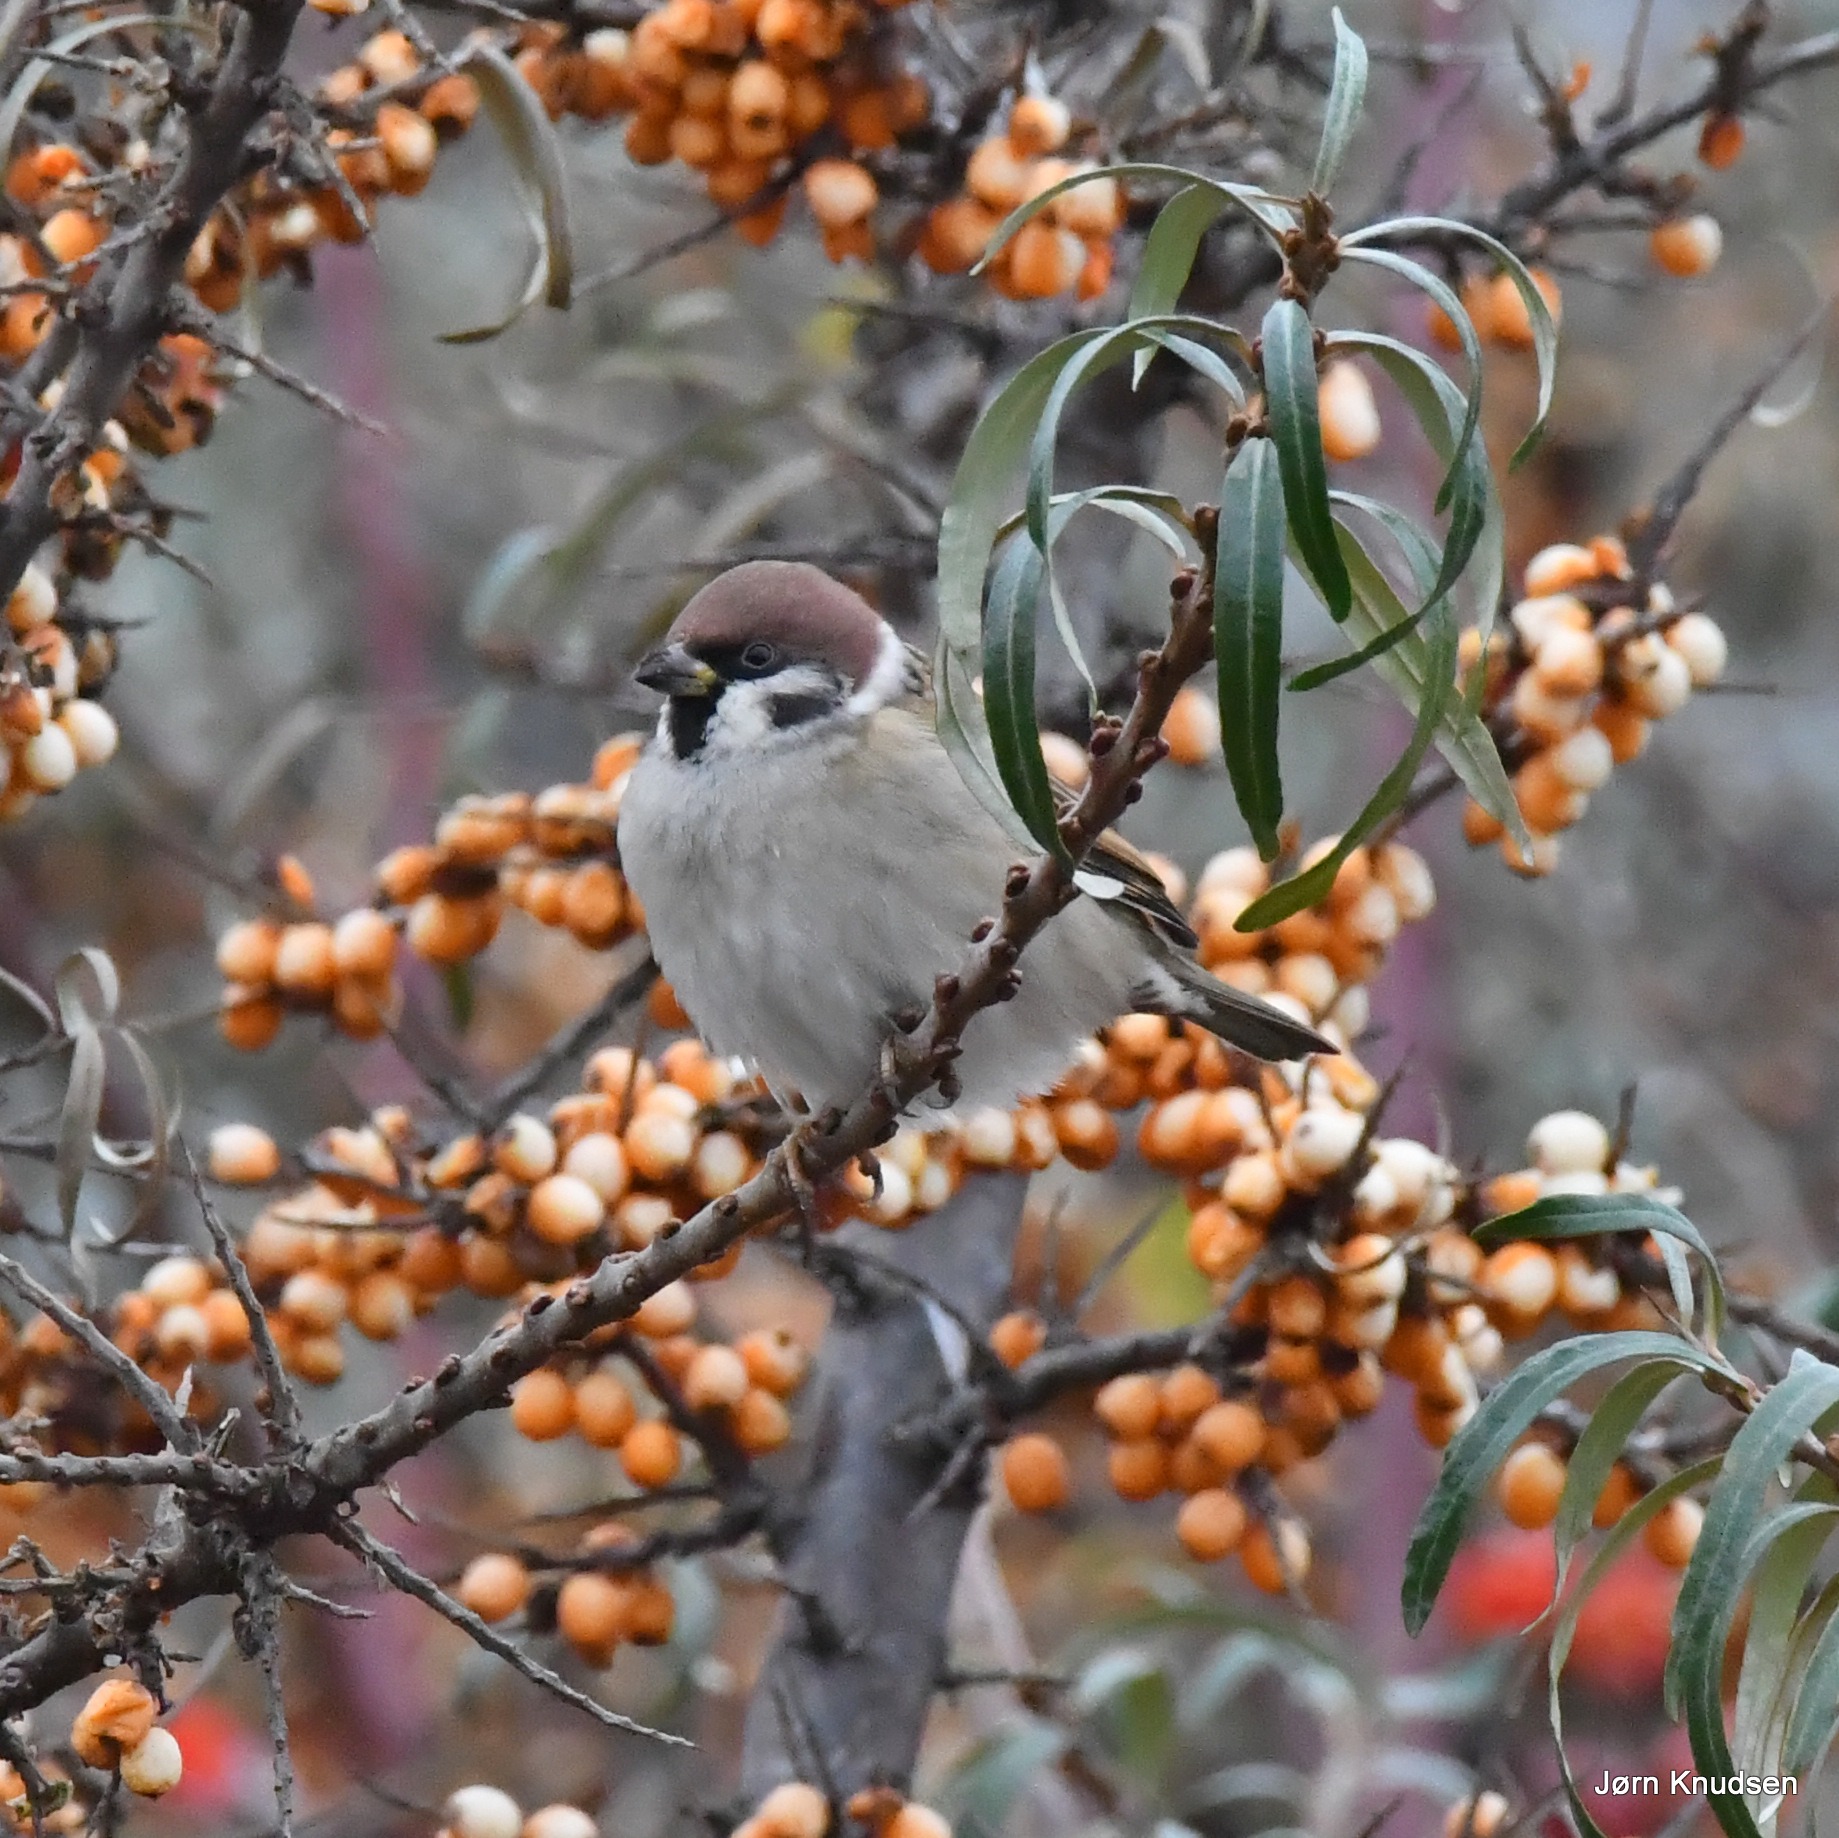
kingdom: Animalia
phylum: Chordata
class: Aves
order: Passeriformes
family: Passeridae
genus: Passer
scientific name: Passer montanus
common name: Skovspurv
